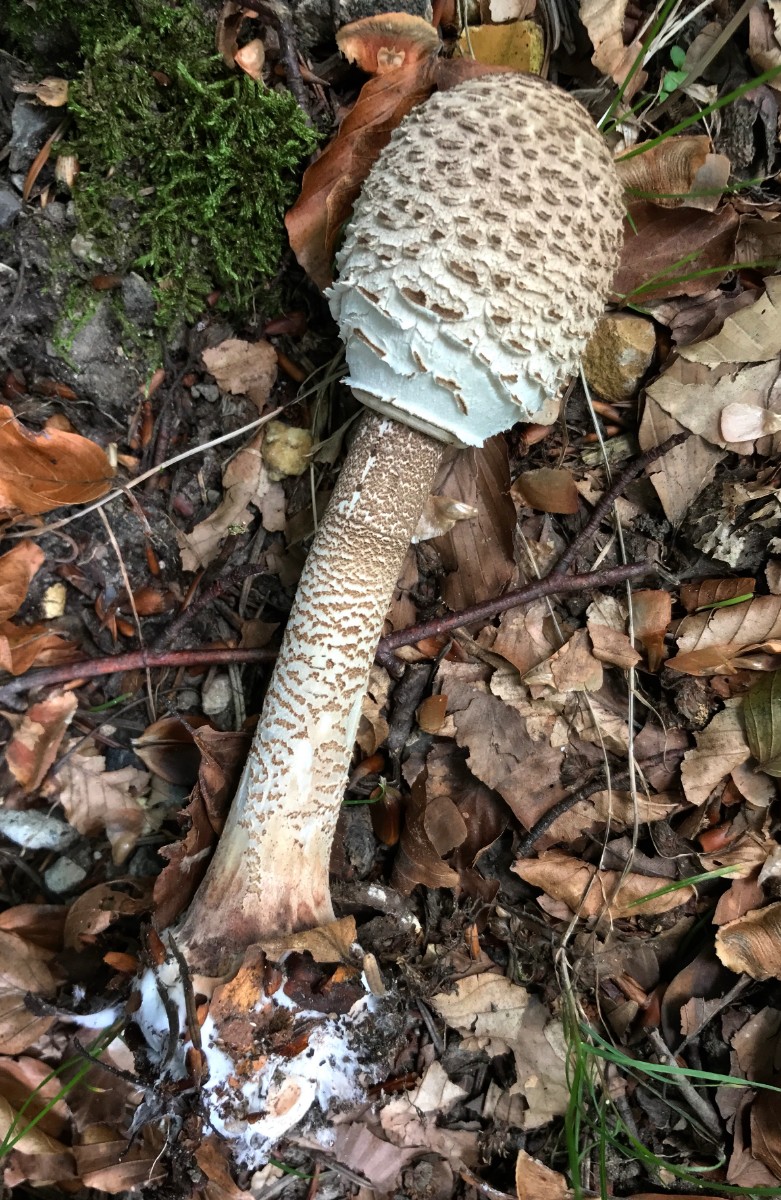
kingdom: Fungi
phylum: Basidiomycota
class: Agaricomycetes
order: Agaricales
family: Agaricaceae
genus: Macrolepiota
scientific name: Macrolepiota procera
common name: stor kæmpeparasolhat
